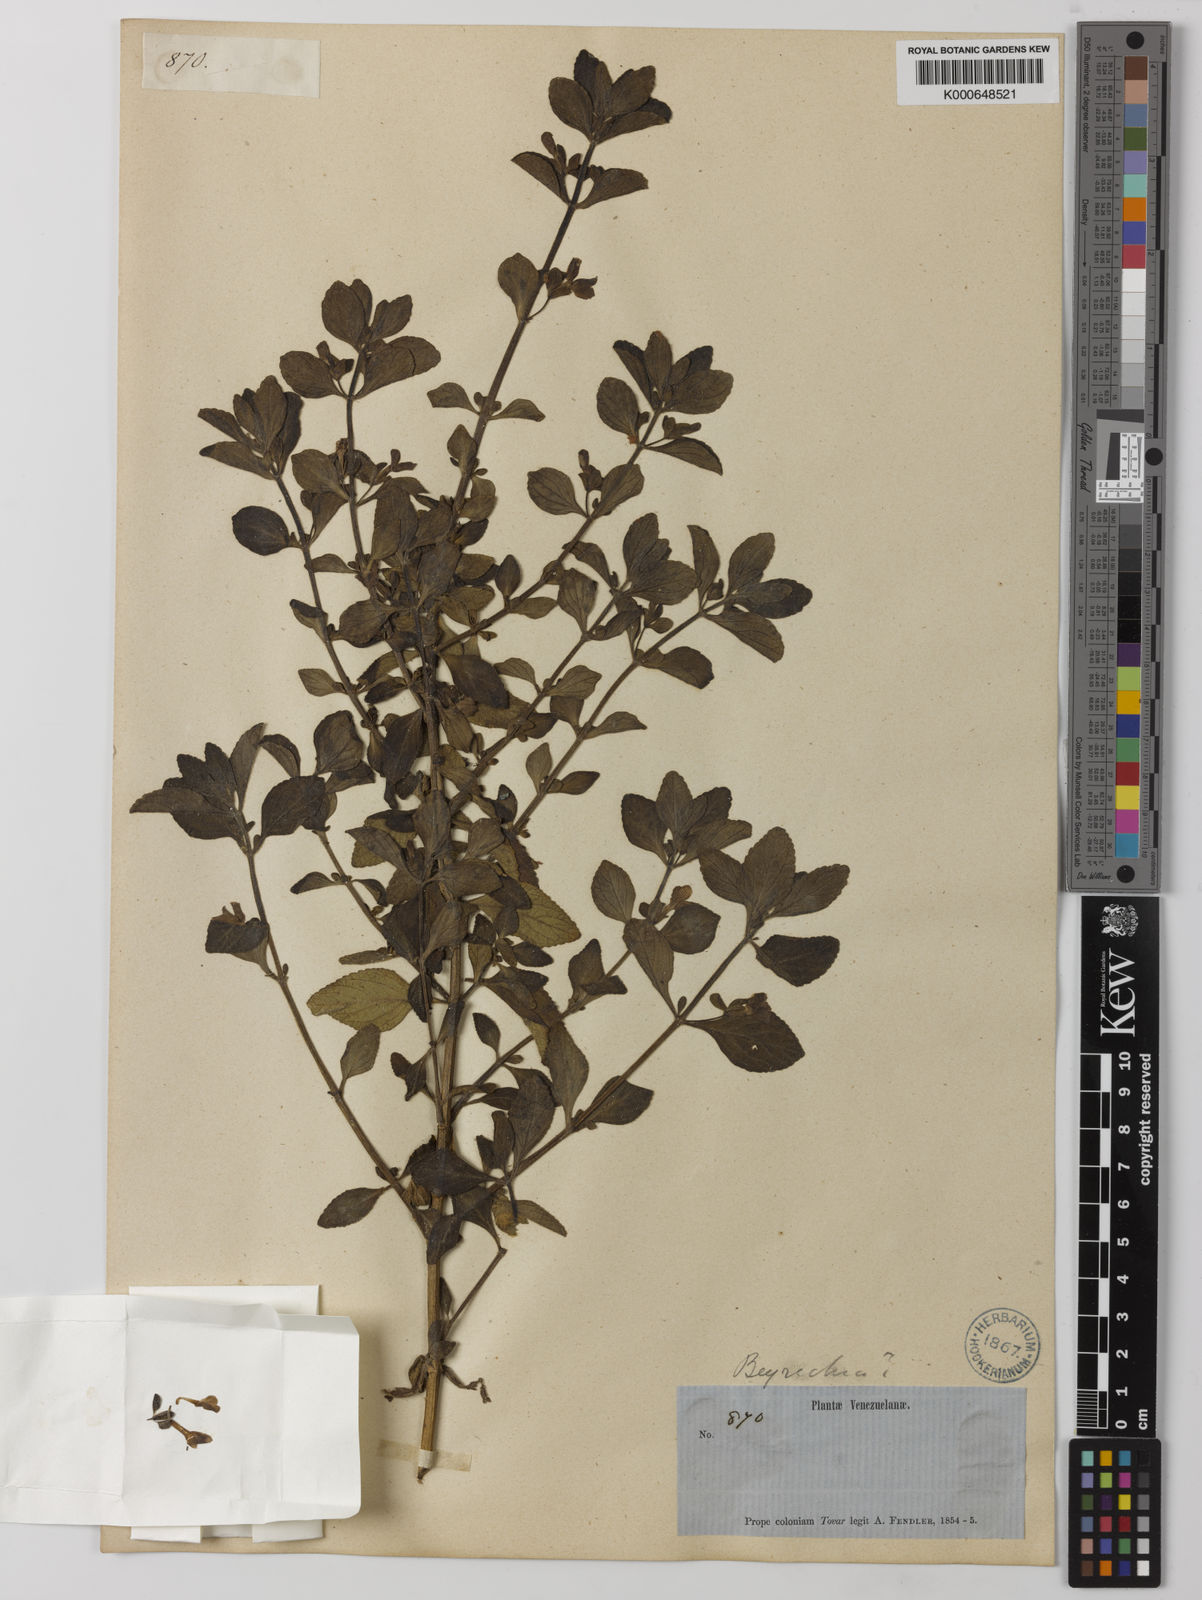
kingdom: Plantae
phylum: Tracheophyta
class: Magnoliopsida
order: Lamiales
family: Plantaginaceae
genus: Matourea
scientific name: Matourea
